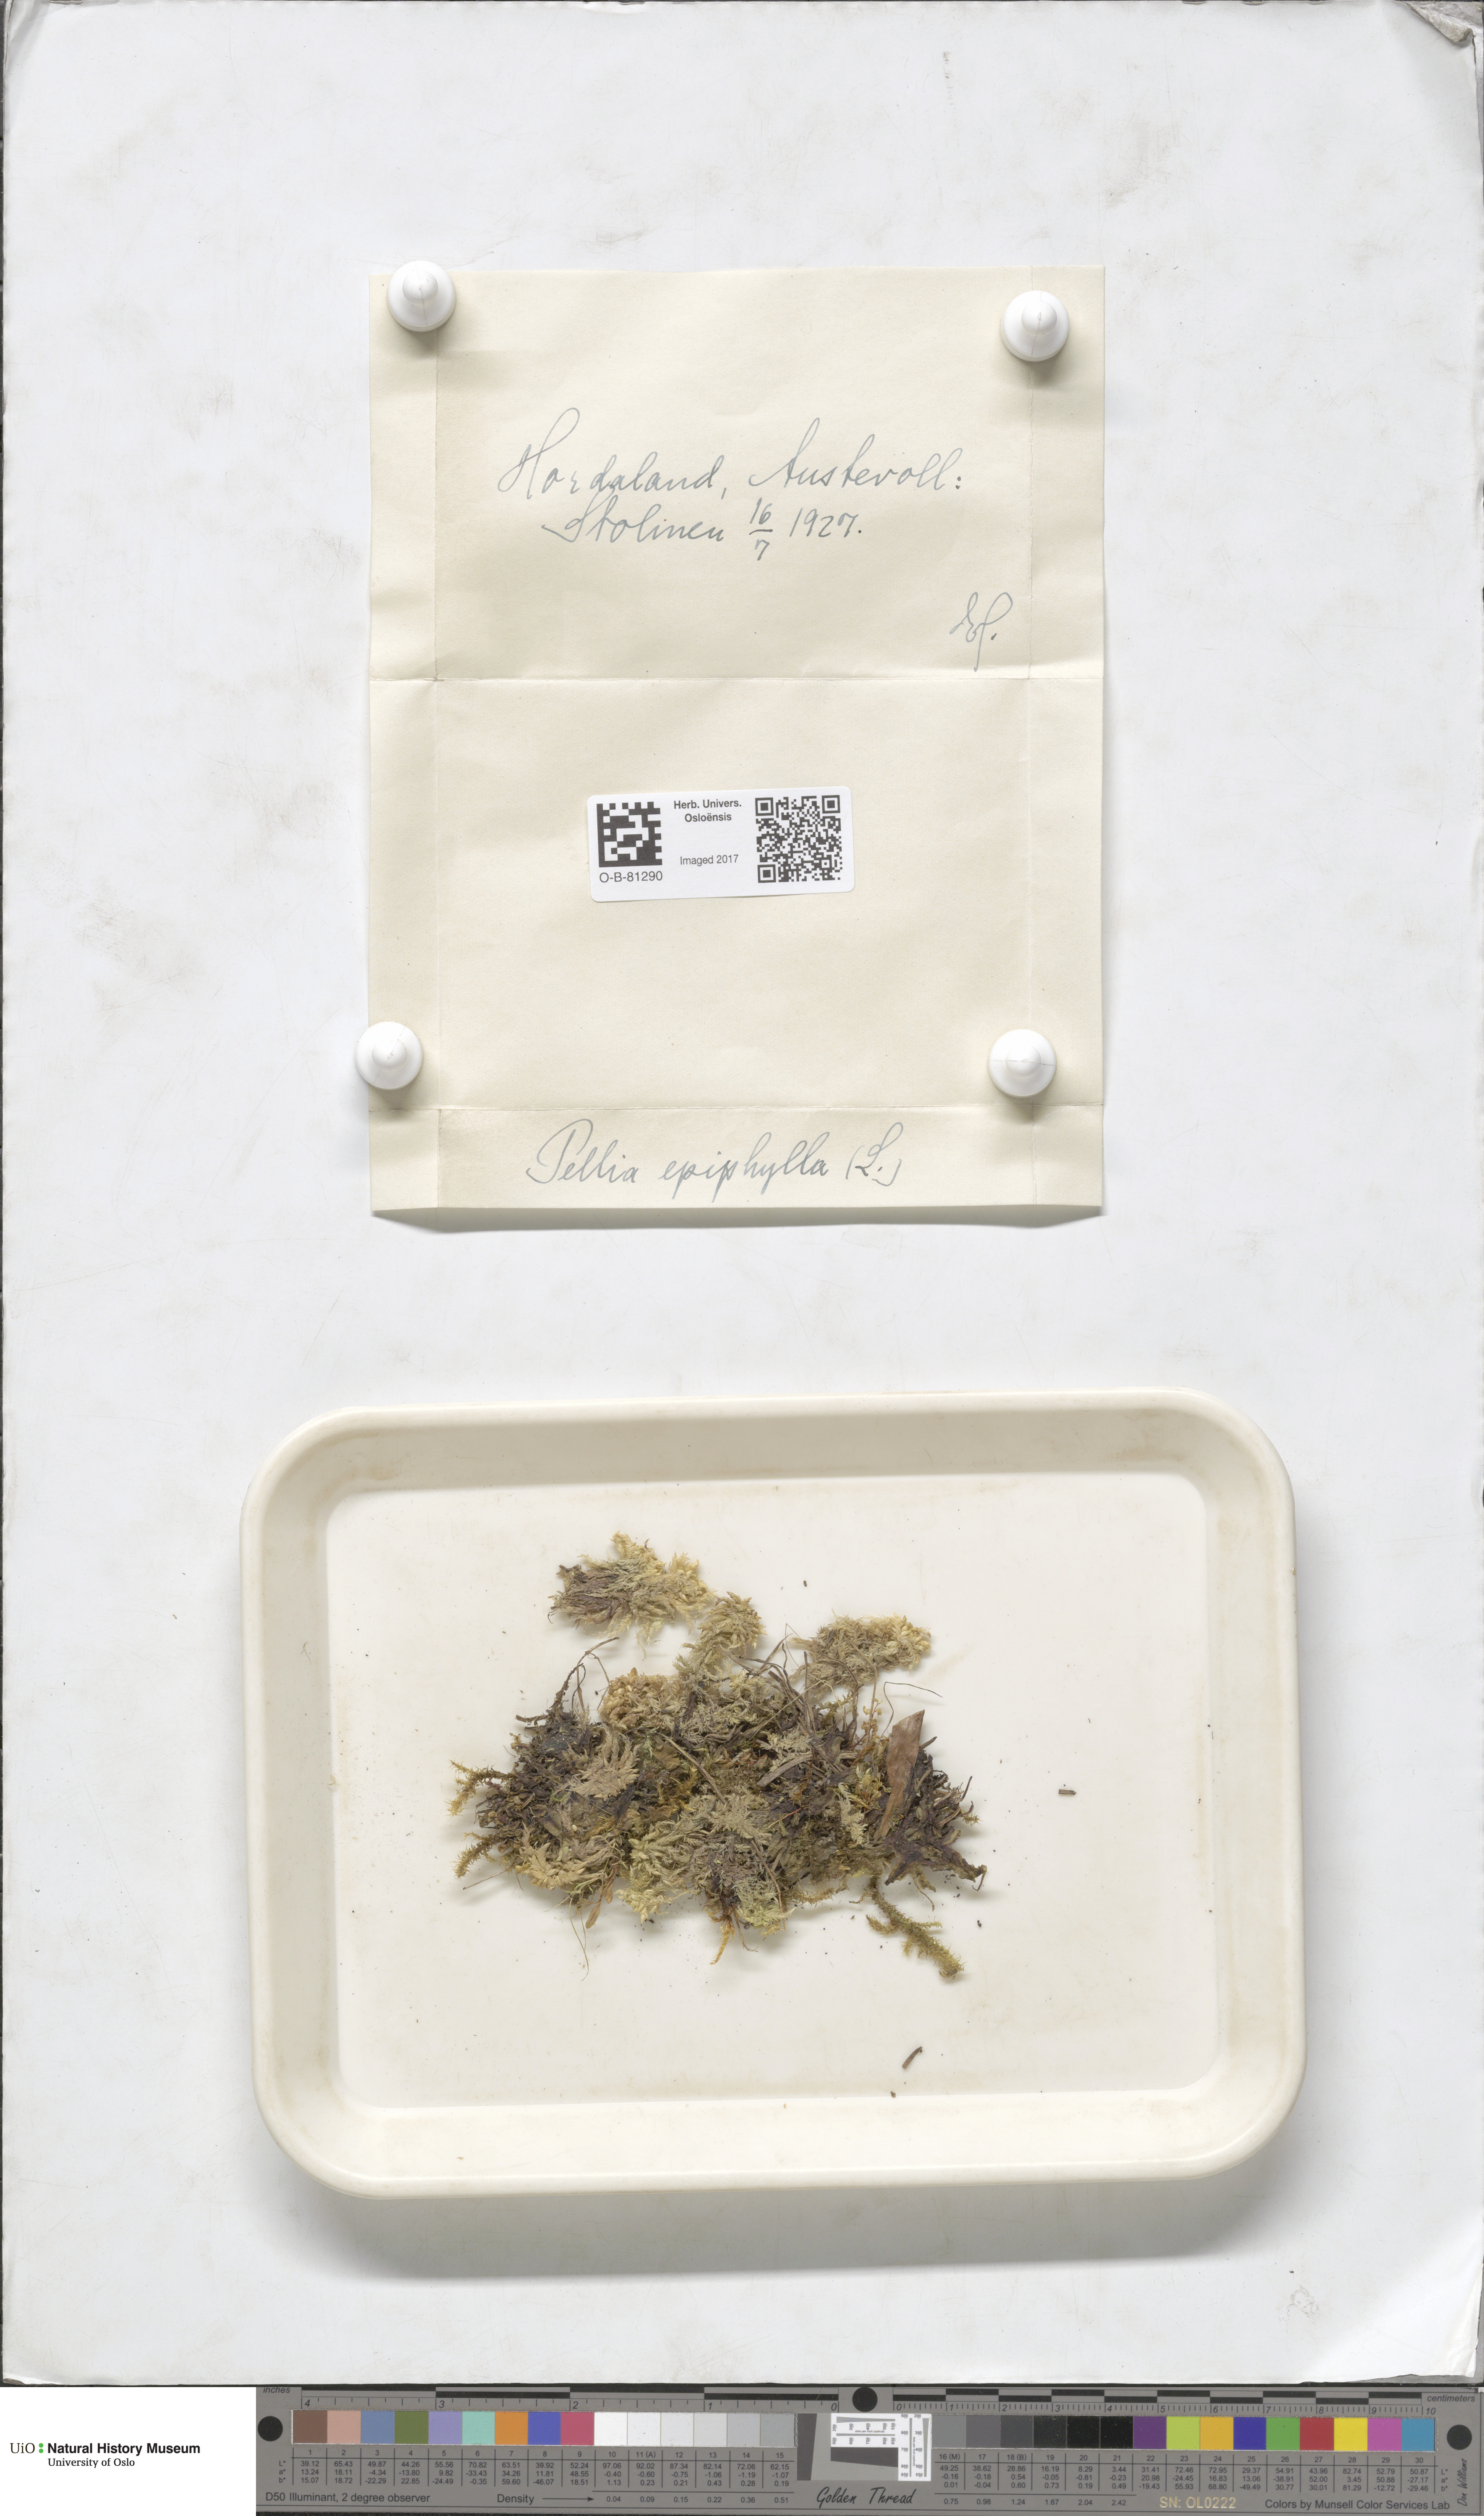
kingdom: Plantae
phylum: Marchantiophyta
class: Jungermanniopsida
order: Pelliales
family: Pelliaceae
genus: Pellia
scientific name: Pellia epiphylla
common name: Common pellia
